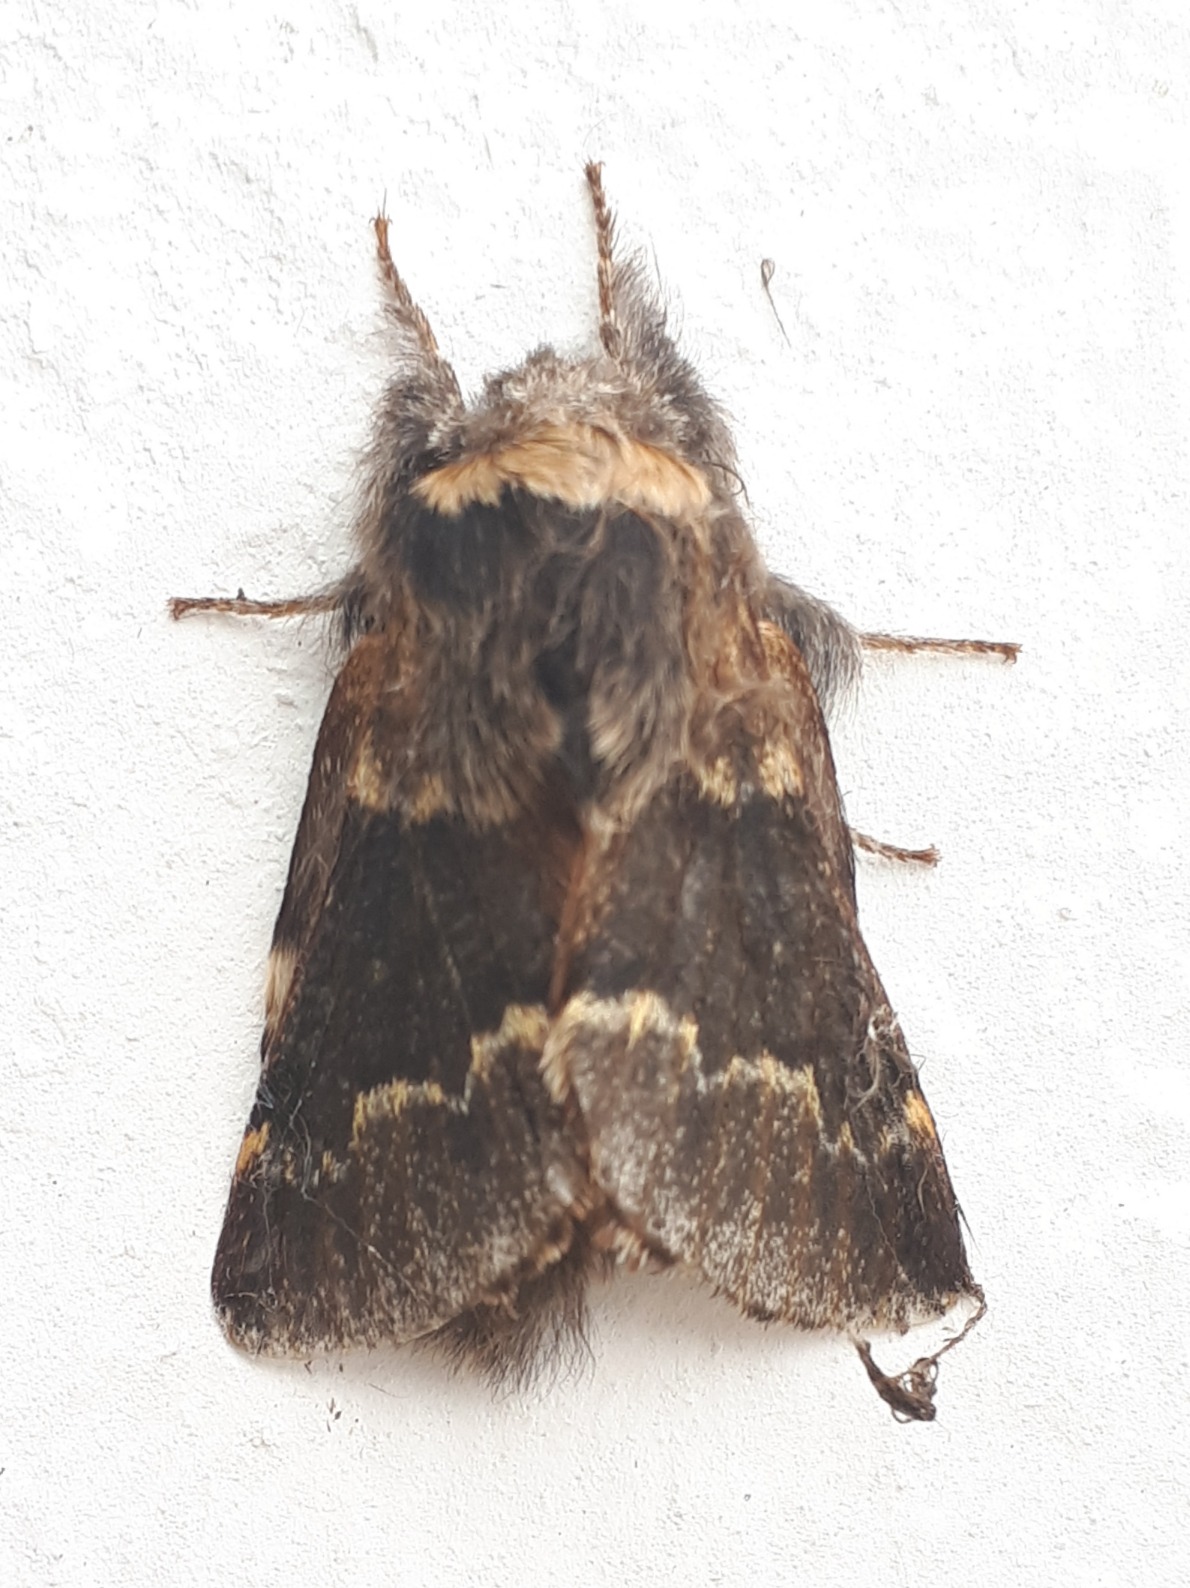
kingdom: Animalia
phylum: Arthropoda
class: Insecta
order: Lepidoptera
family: Lasiocampidae
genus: Poecilocampa
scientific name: Poecilocampa populi
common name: Poppelspinder
